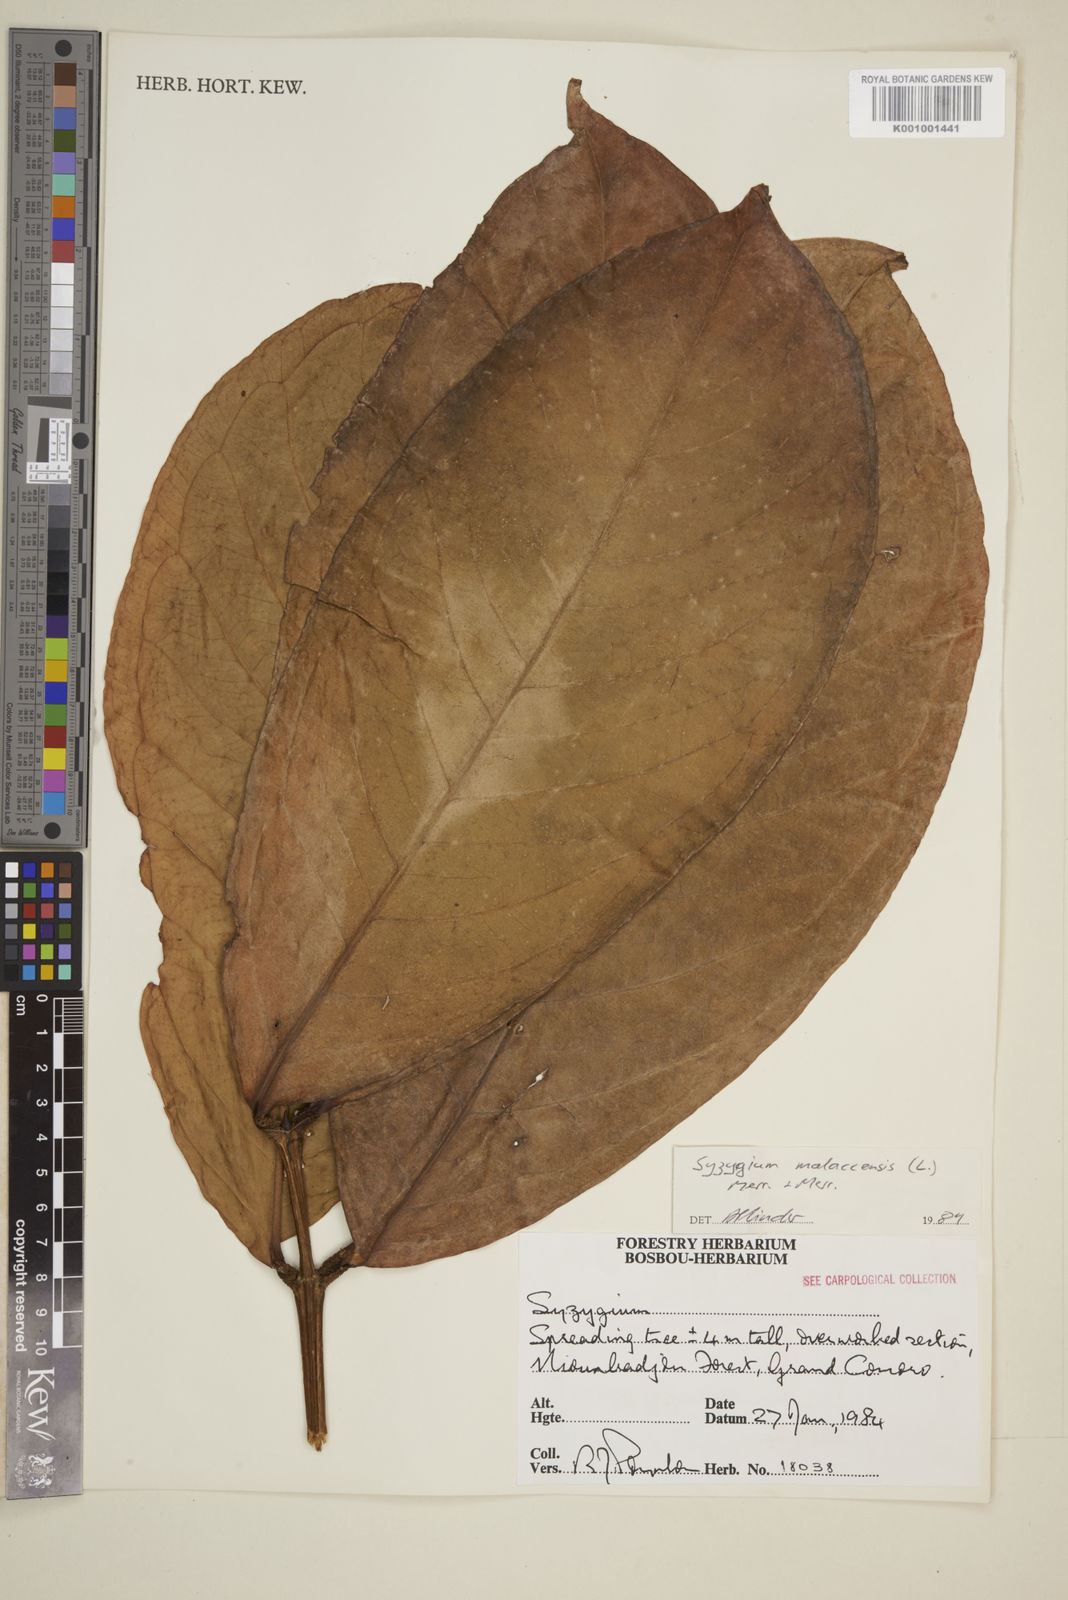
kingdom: Plantae
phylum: Tracheophyta
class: Magnoliopsida
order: Myrtales
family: Myrtaceae
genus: Syzygium
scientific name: Syzygium malaccense
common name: Malaysian apple
